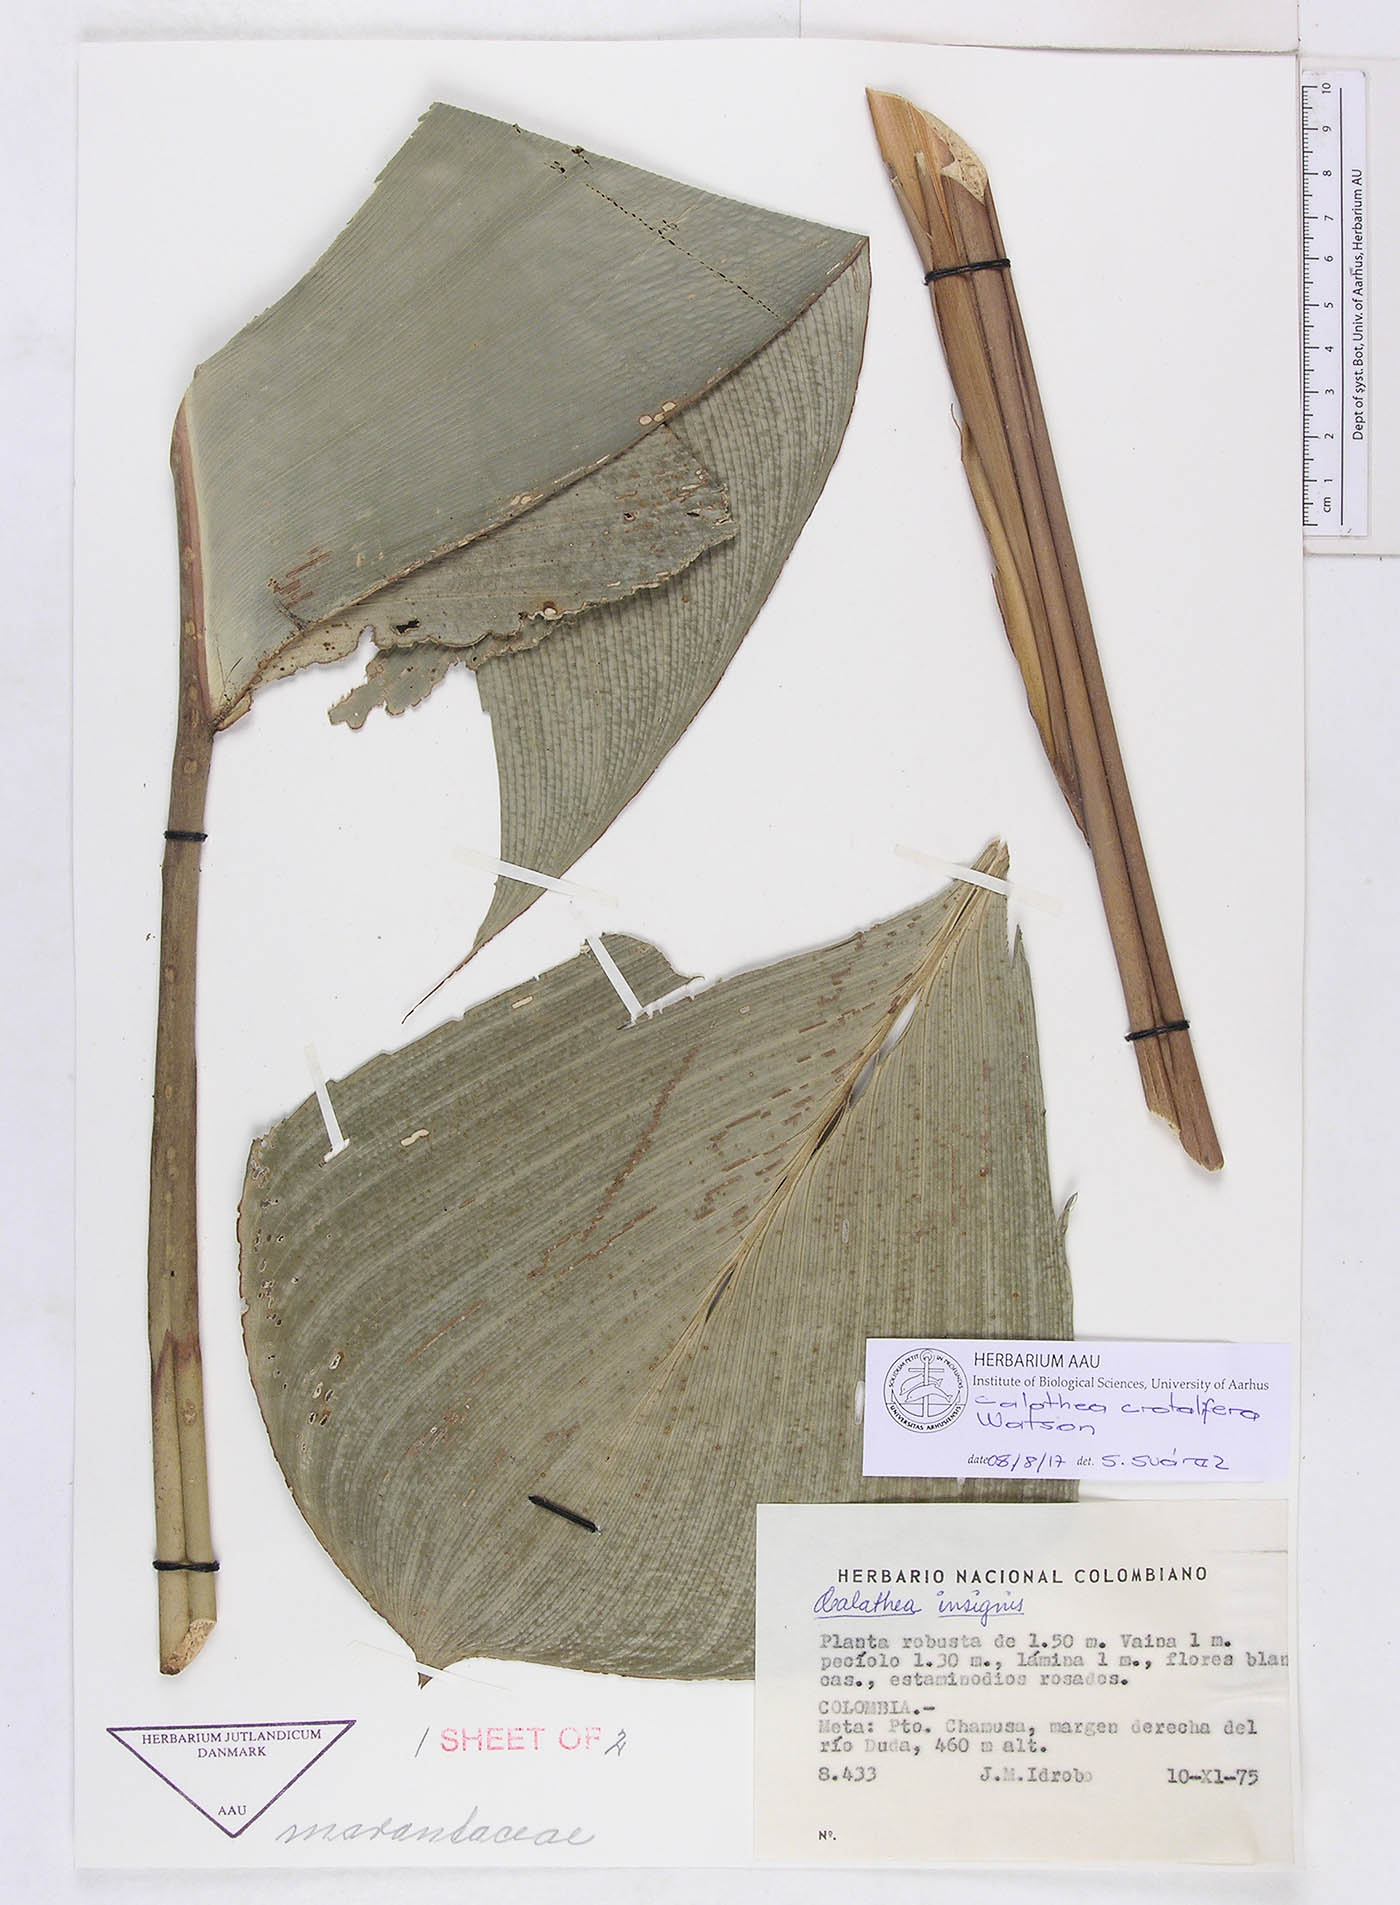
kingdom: Plantae
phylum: Tracheophyta
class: Liliopsida
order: Zingiberales
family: Marantaceae
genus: Calathea
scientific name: Calathea crotalifera
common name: Rattlesnake plant
